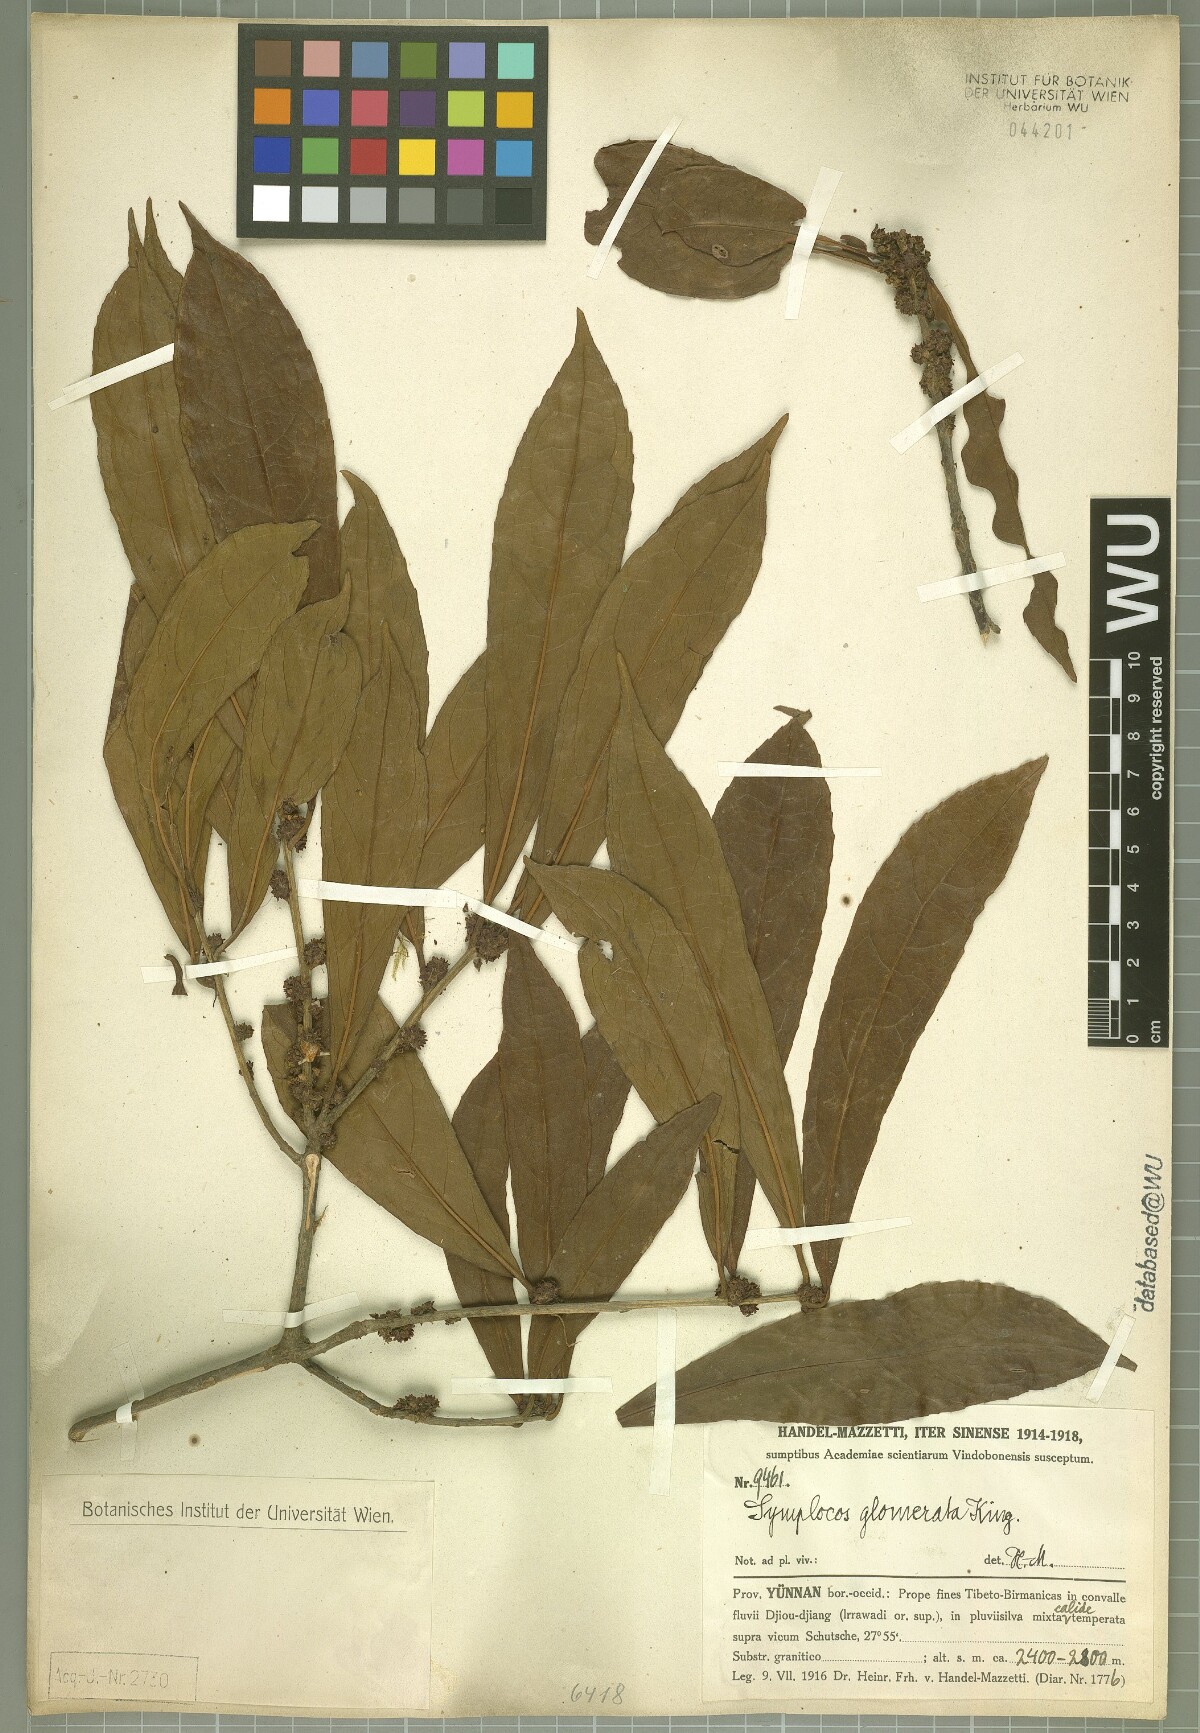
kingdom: Plantae
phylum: Tracheophyta
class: Magnoliopsida
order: Ericales
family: Symplocaceae
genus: Symplocos
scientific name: Symplocos glomerata
